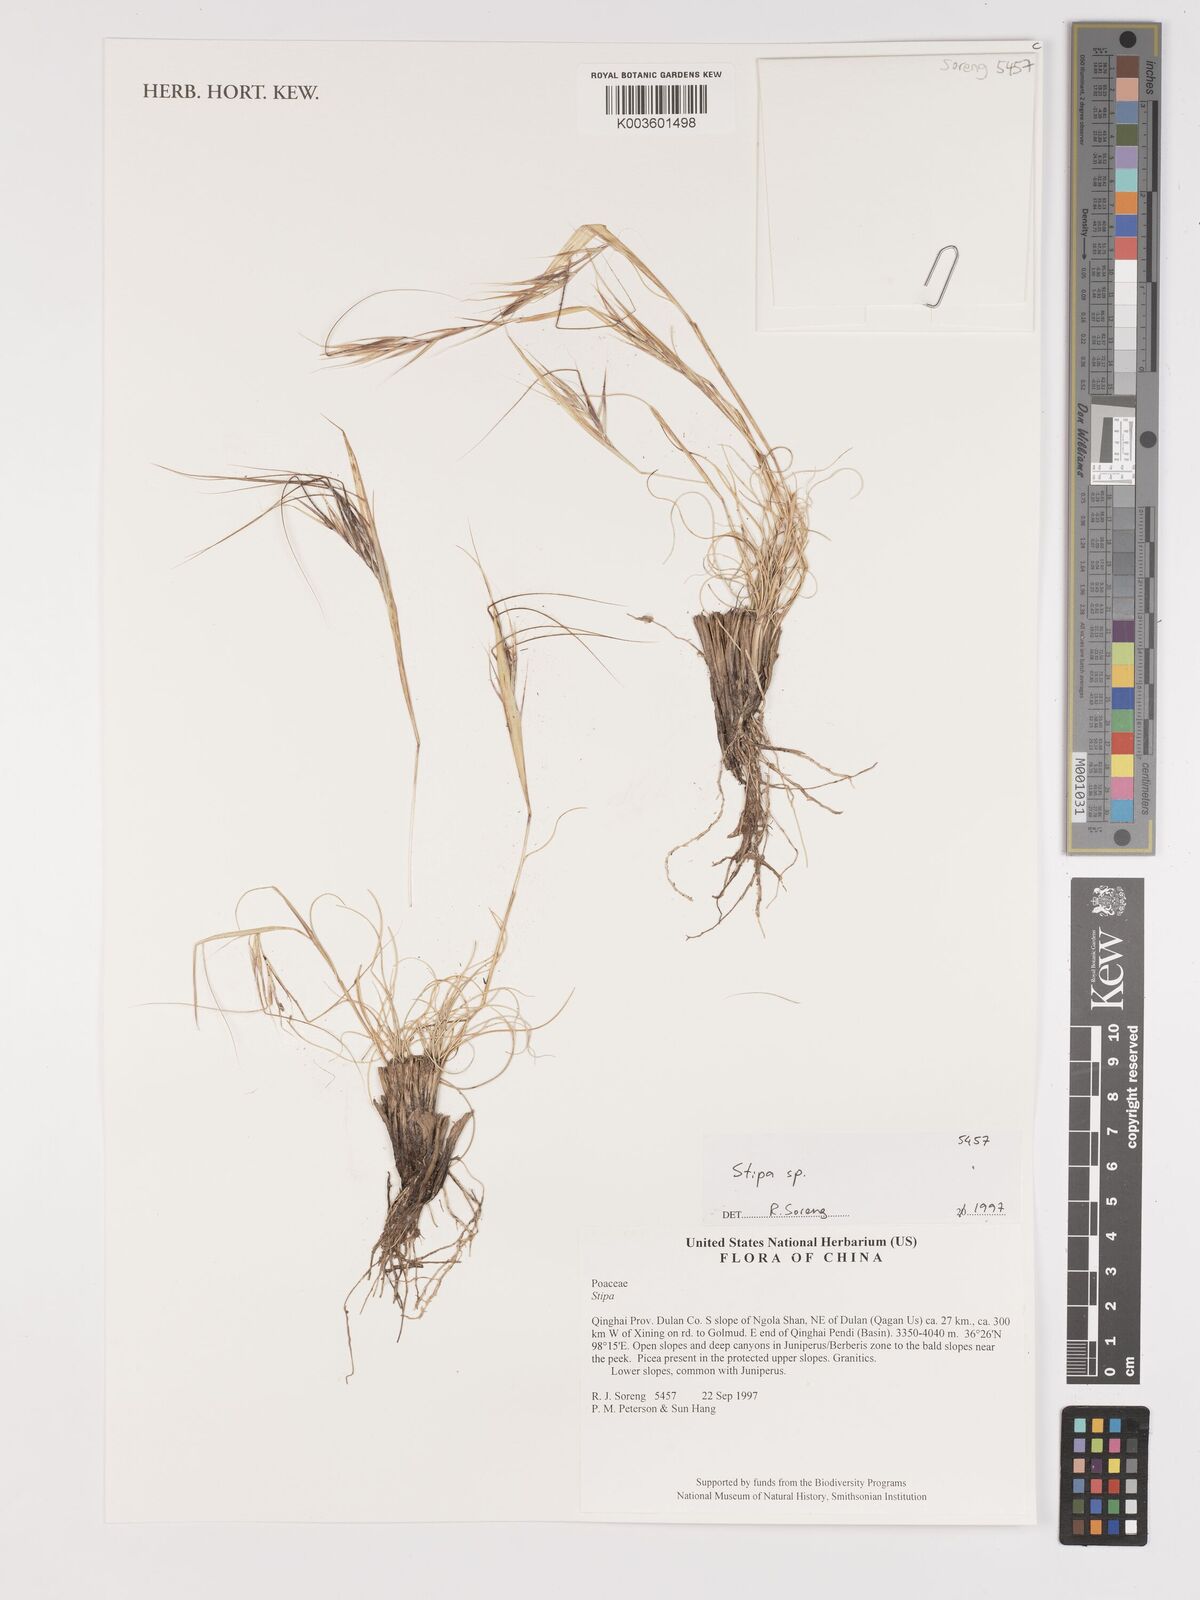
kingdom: Plantae
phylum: Tracheophyta
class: Liliopsida
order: Poales
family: Poaceae
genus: Stipa
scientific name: Stipa
